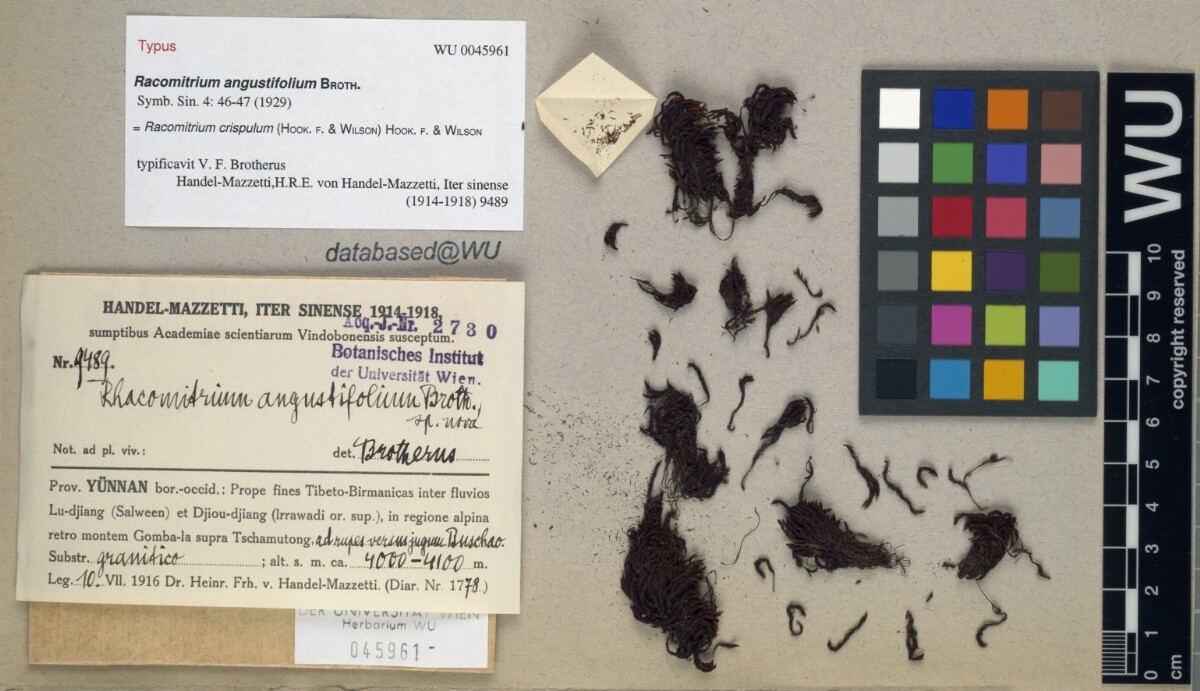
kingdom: Plantae
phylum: Bryophyta
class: Bryopsida
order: Grimmiales
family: Grimmiaceae
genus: Bucklandiella
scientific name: Bucklandiella angustifolia
